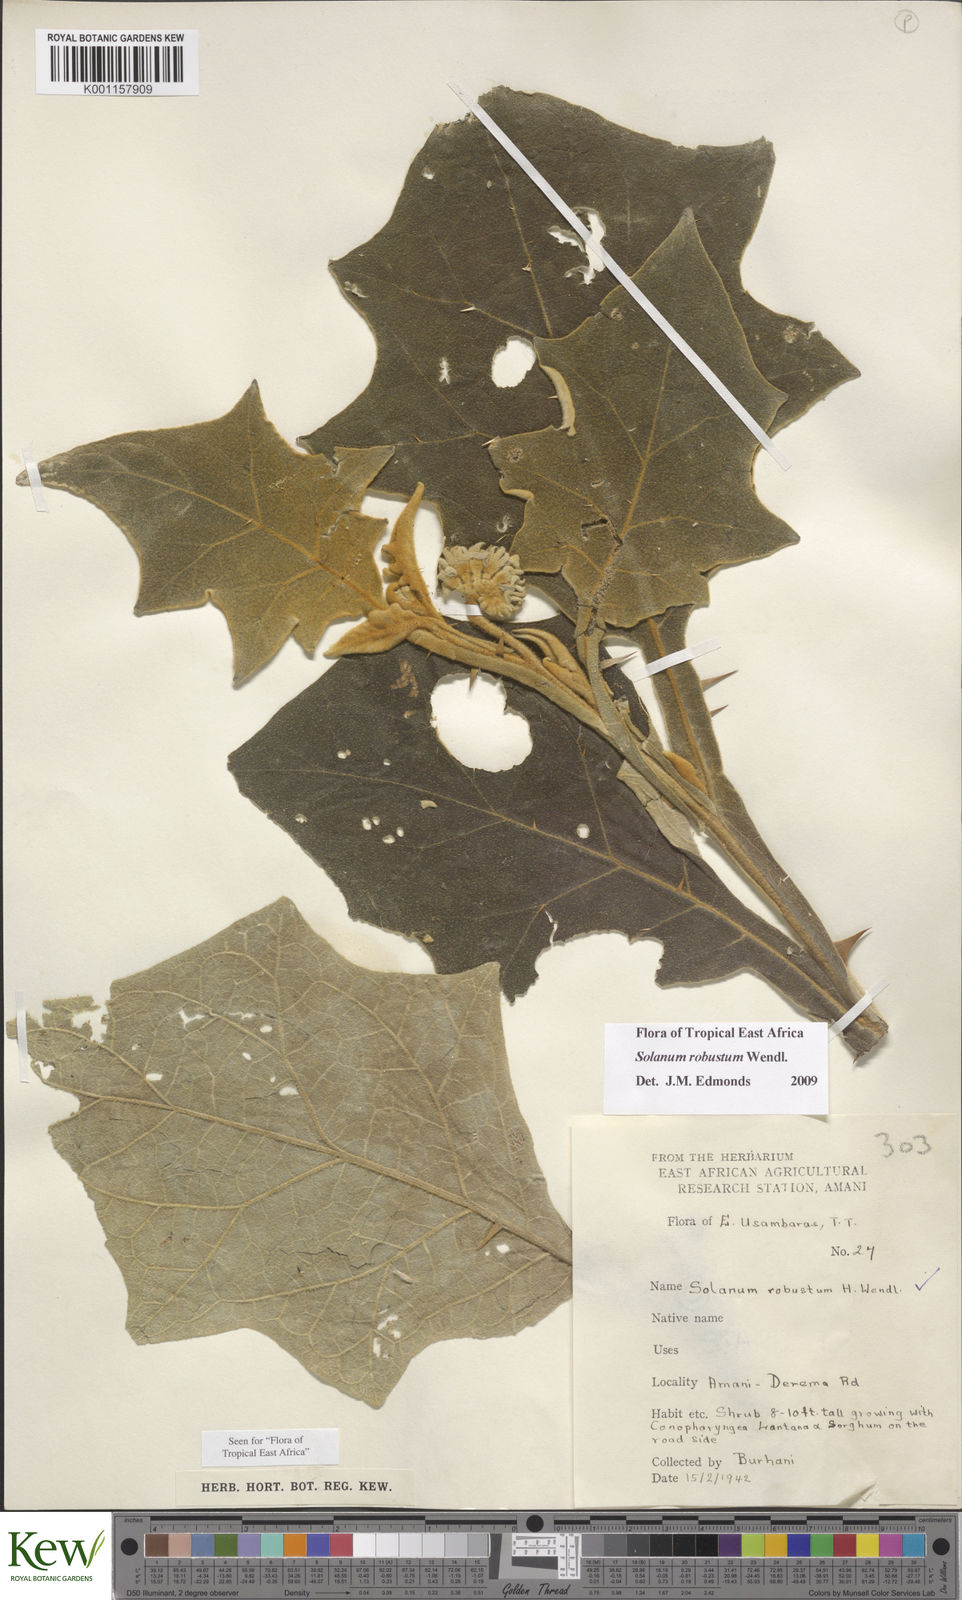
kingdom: Plantae
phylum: Tracheophyta
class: Magnoliopsida
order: Solanales
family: Solanaceae
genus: Solanum
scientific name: Solanum robustum
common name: Shrubby nightshade
